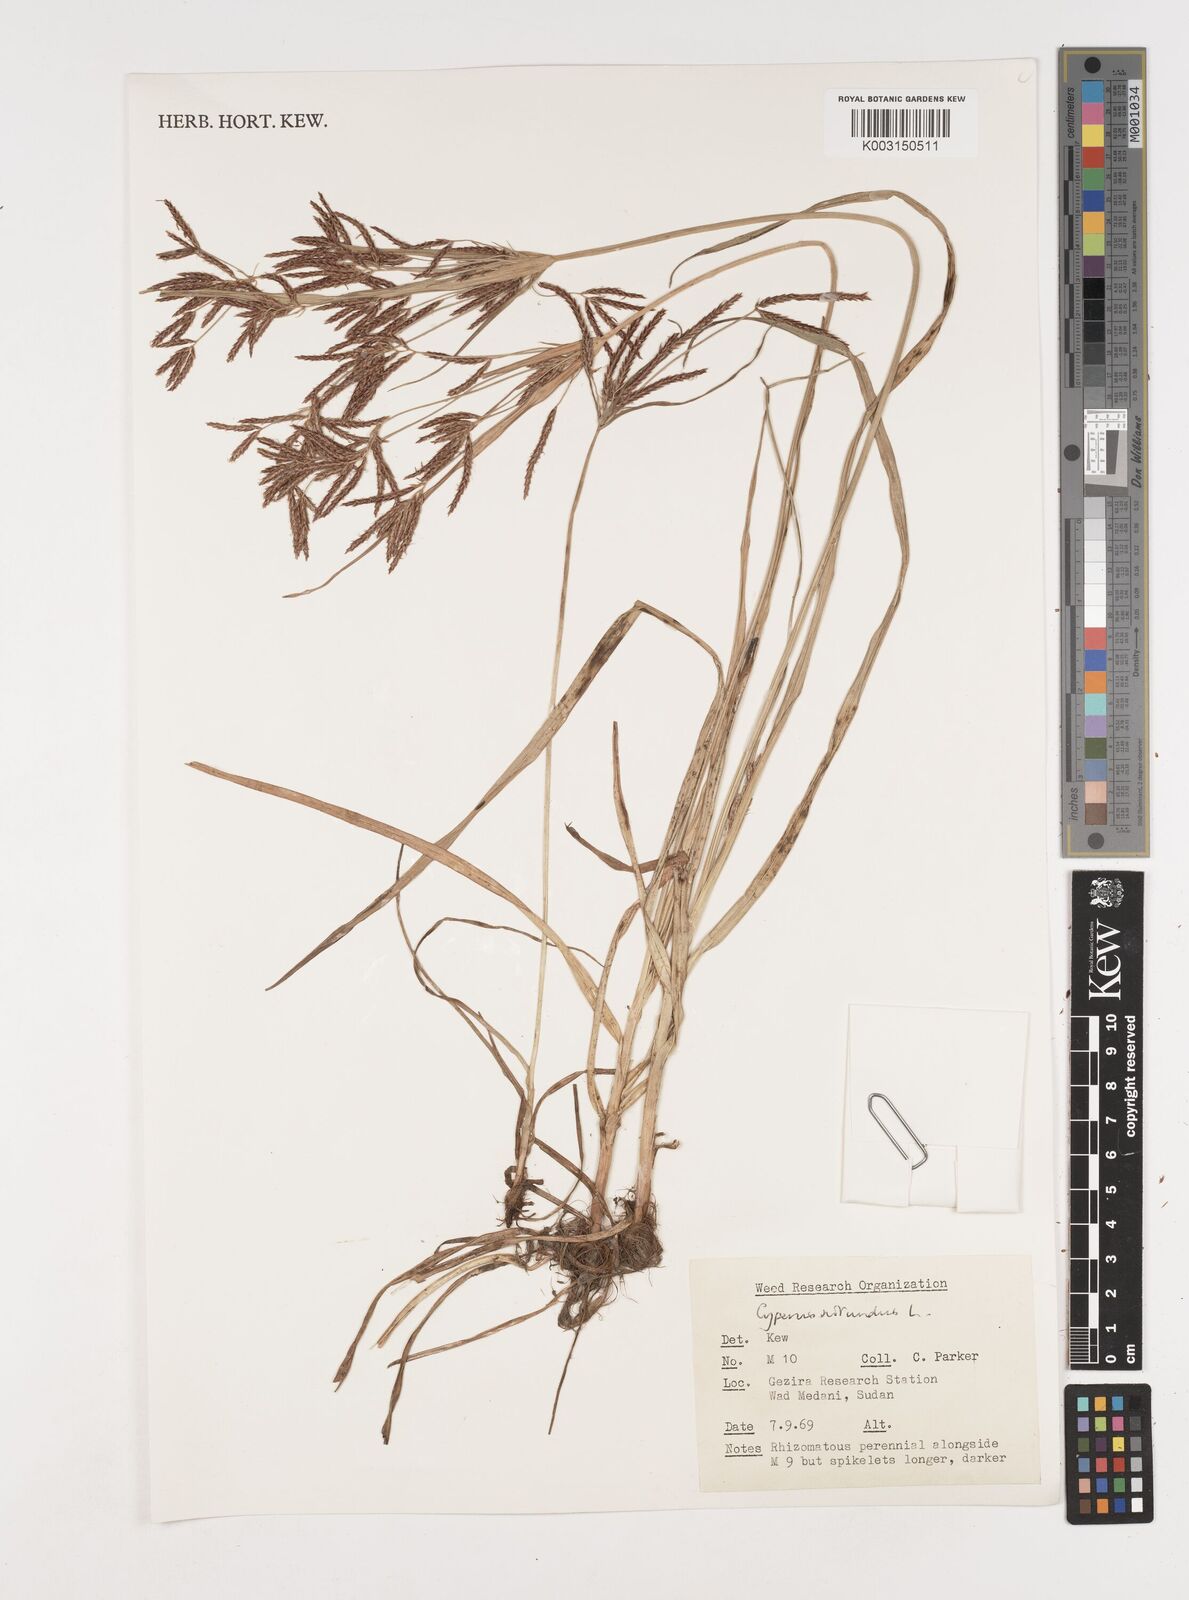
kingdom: Plantae
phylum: Tracheophyta
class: Liliopsida
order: Poales
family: Cyperaceae
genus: Cyperus
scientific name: Cyperus rotundus
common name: Nutgrass
